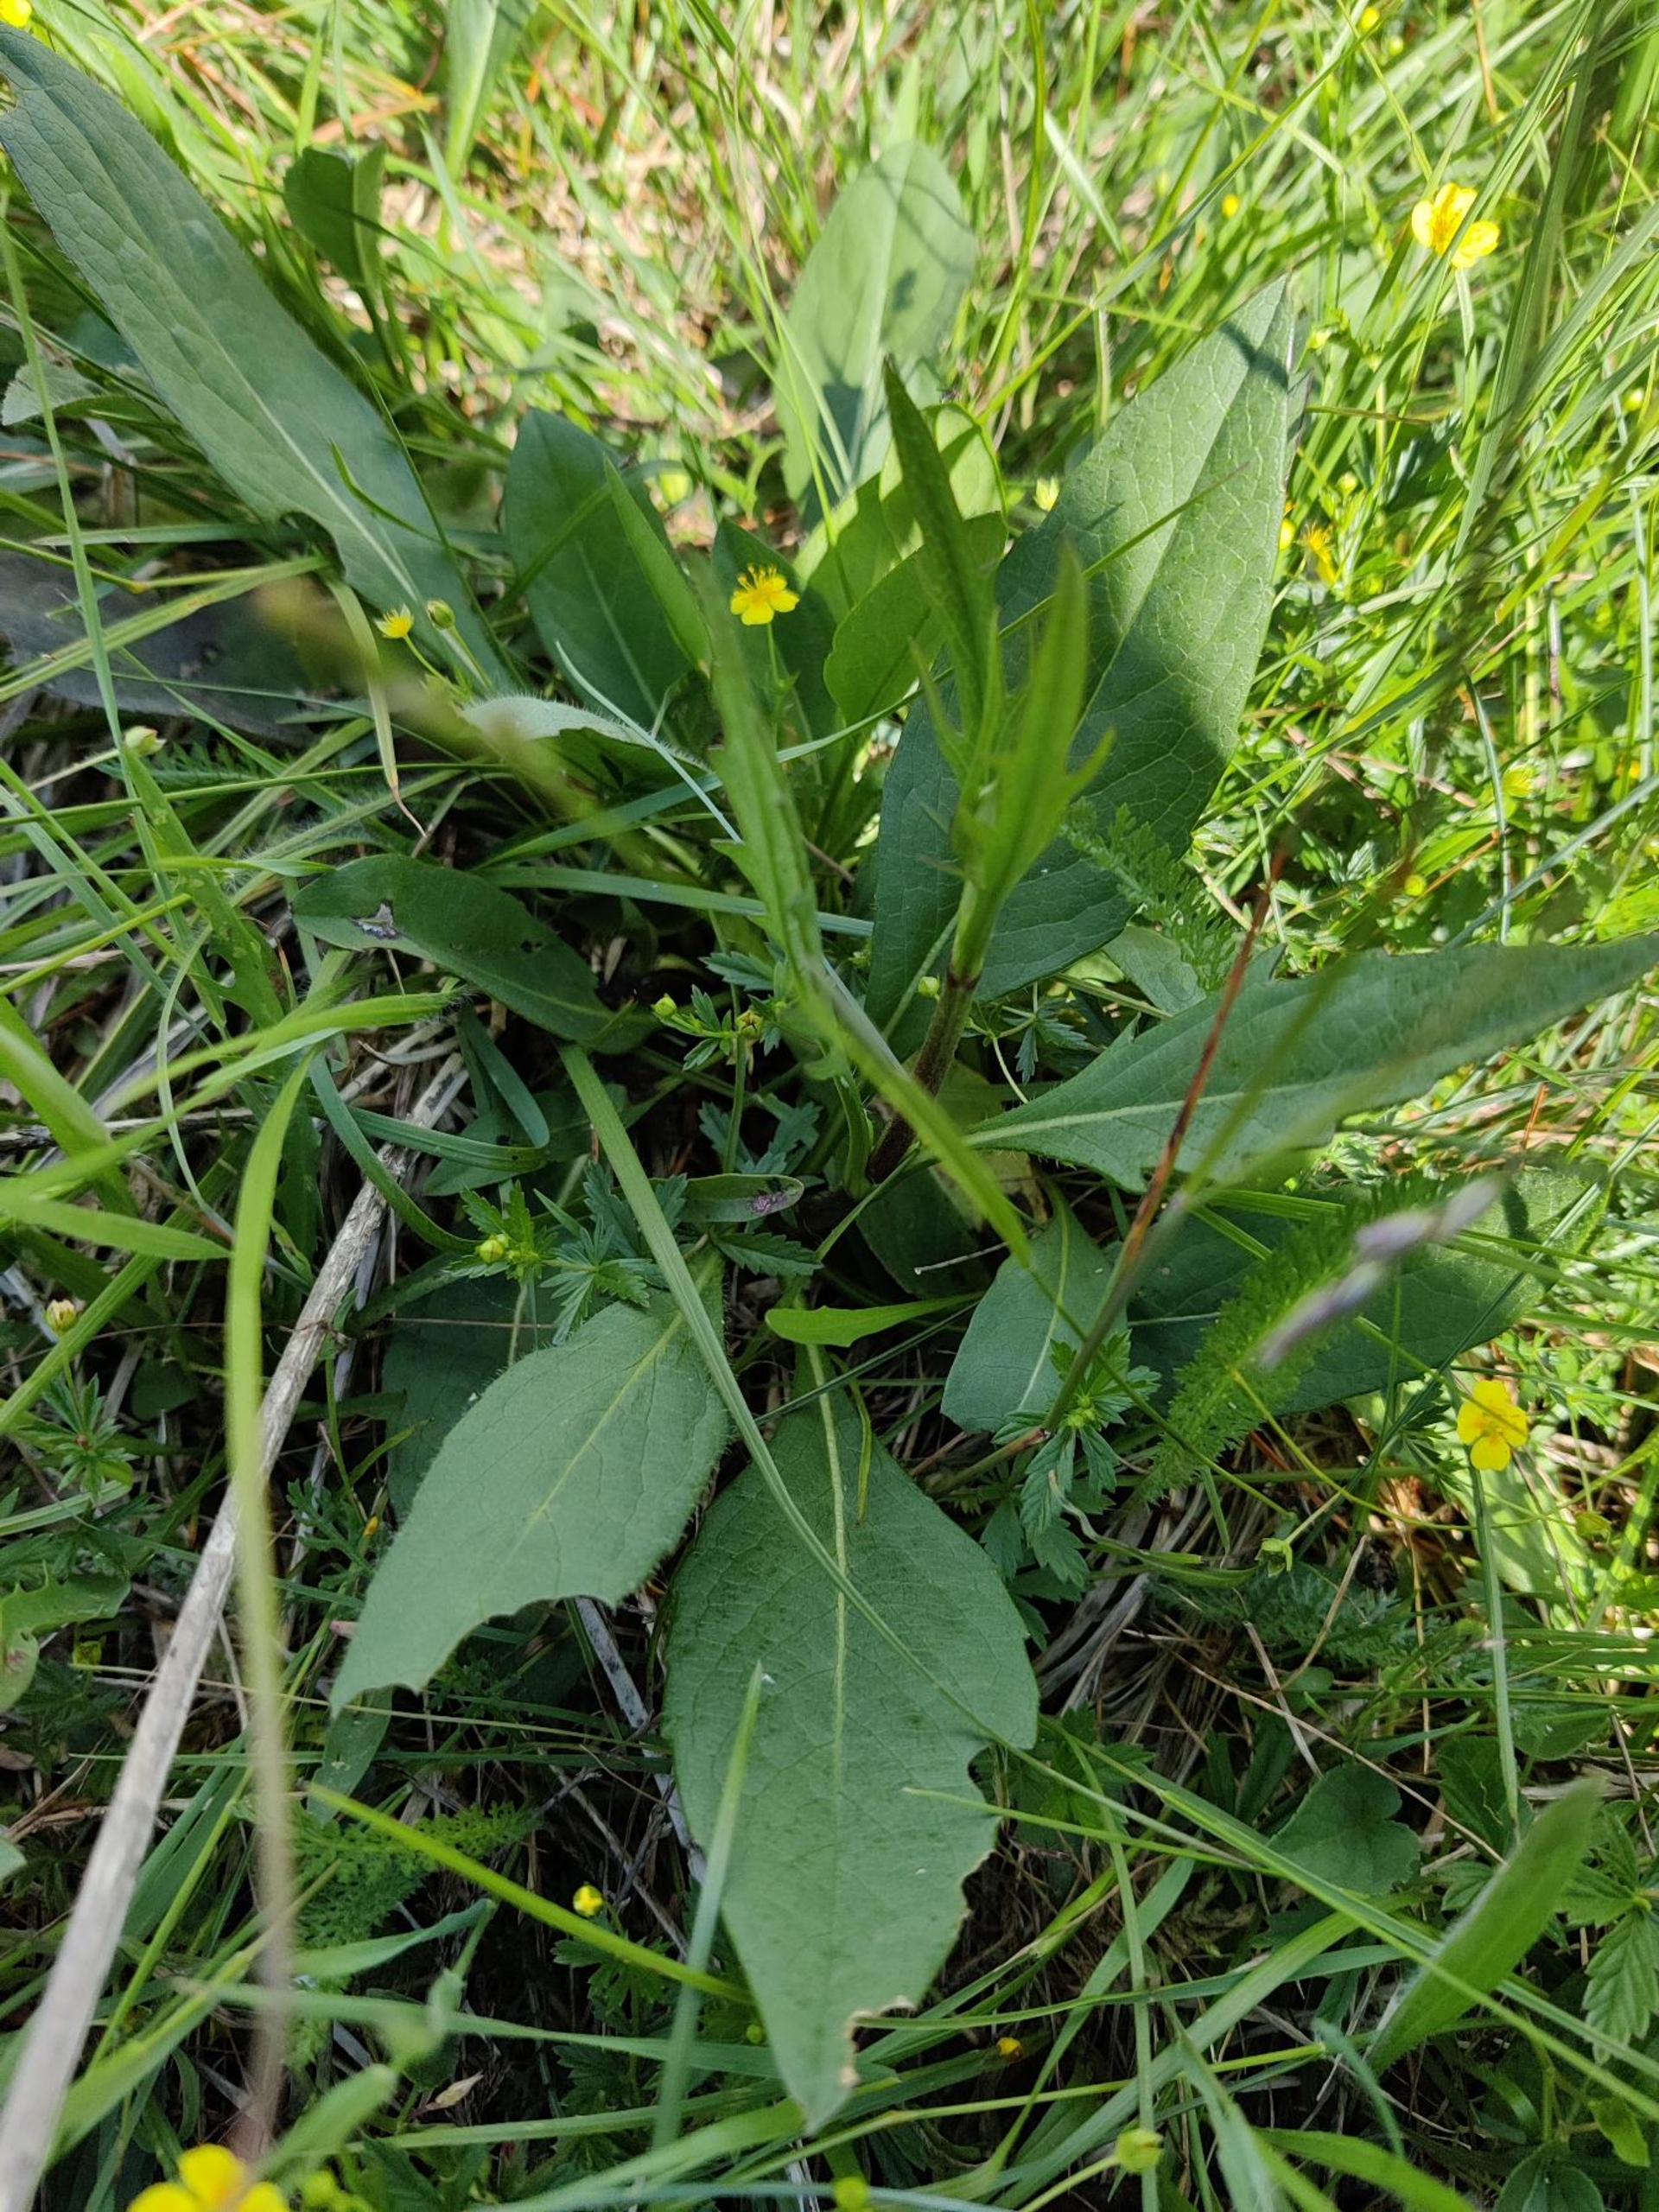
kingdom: Plantae
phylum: Tracheophyta
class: Magnoliopsida
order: Dipsacales
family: Caprifoliaceae
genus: Succisa
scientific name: Succisa pratensis
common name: Djævelsbid
